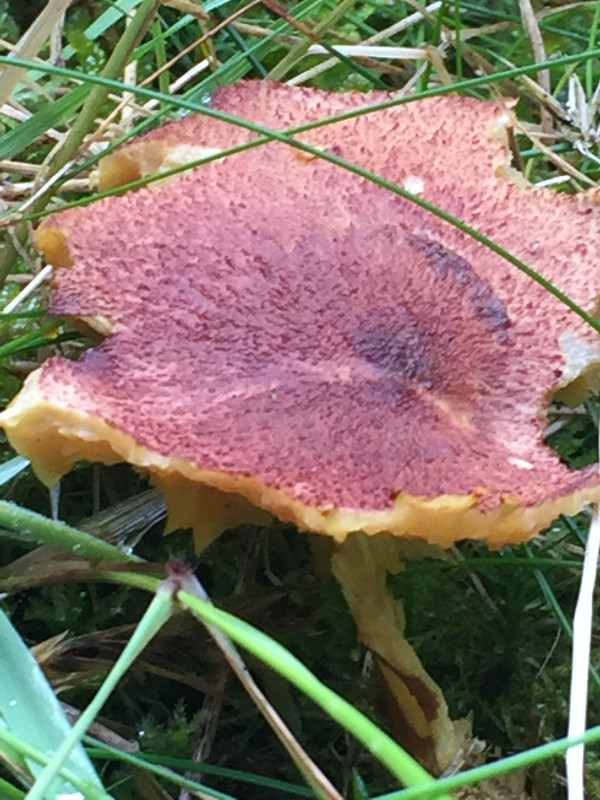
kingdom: Fungi
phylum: Basidiomycota
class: Agaricomycetes
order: Agaricales
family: Tricholomataceae
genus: Tricholomopsis
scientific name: Tricholomopsis rutilans
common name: purpur-væbnerhat
